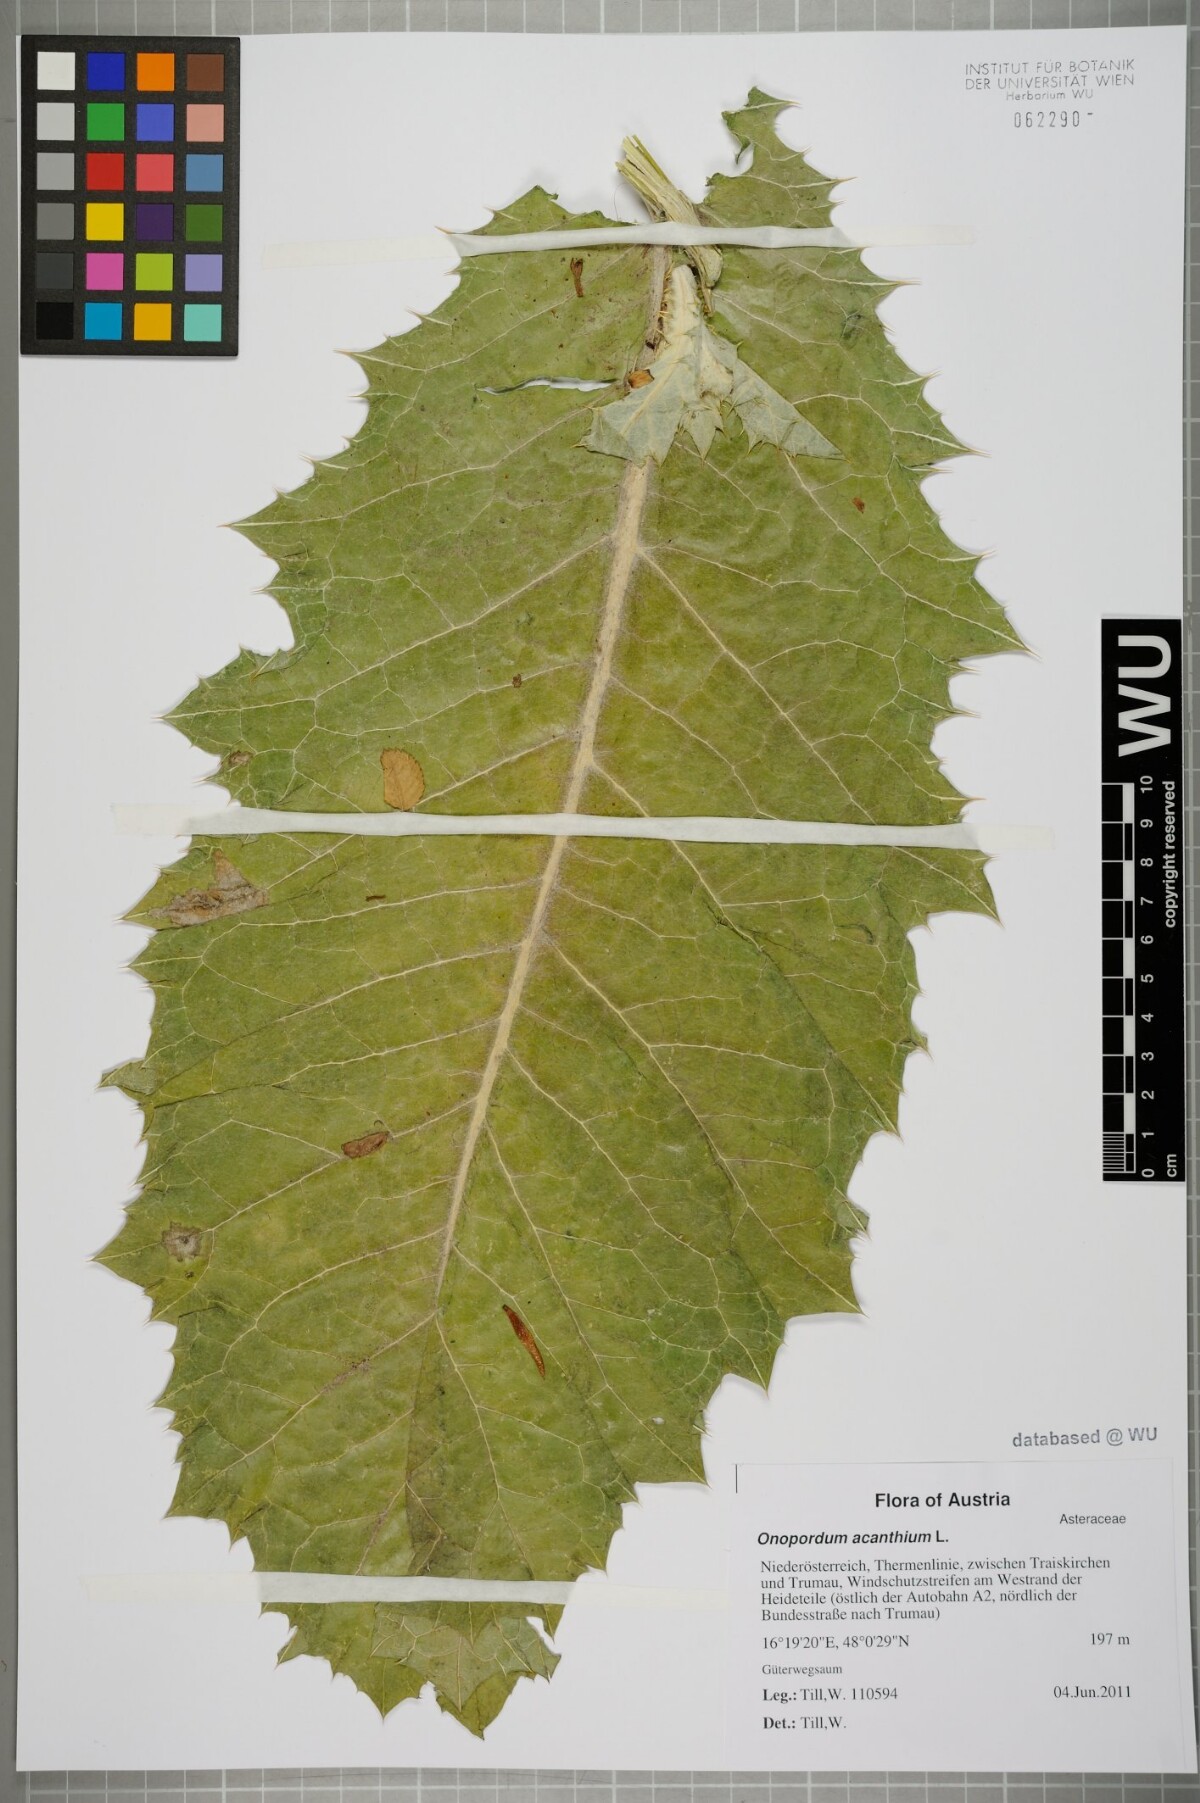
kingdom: Plantae
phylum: Tracheophyta
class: Magnoliopsida
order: Asterales
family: Asteraceae
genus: Onopordum
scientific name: Onopordum acanthium
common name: Scotch thistle
